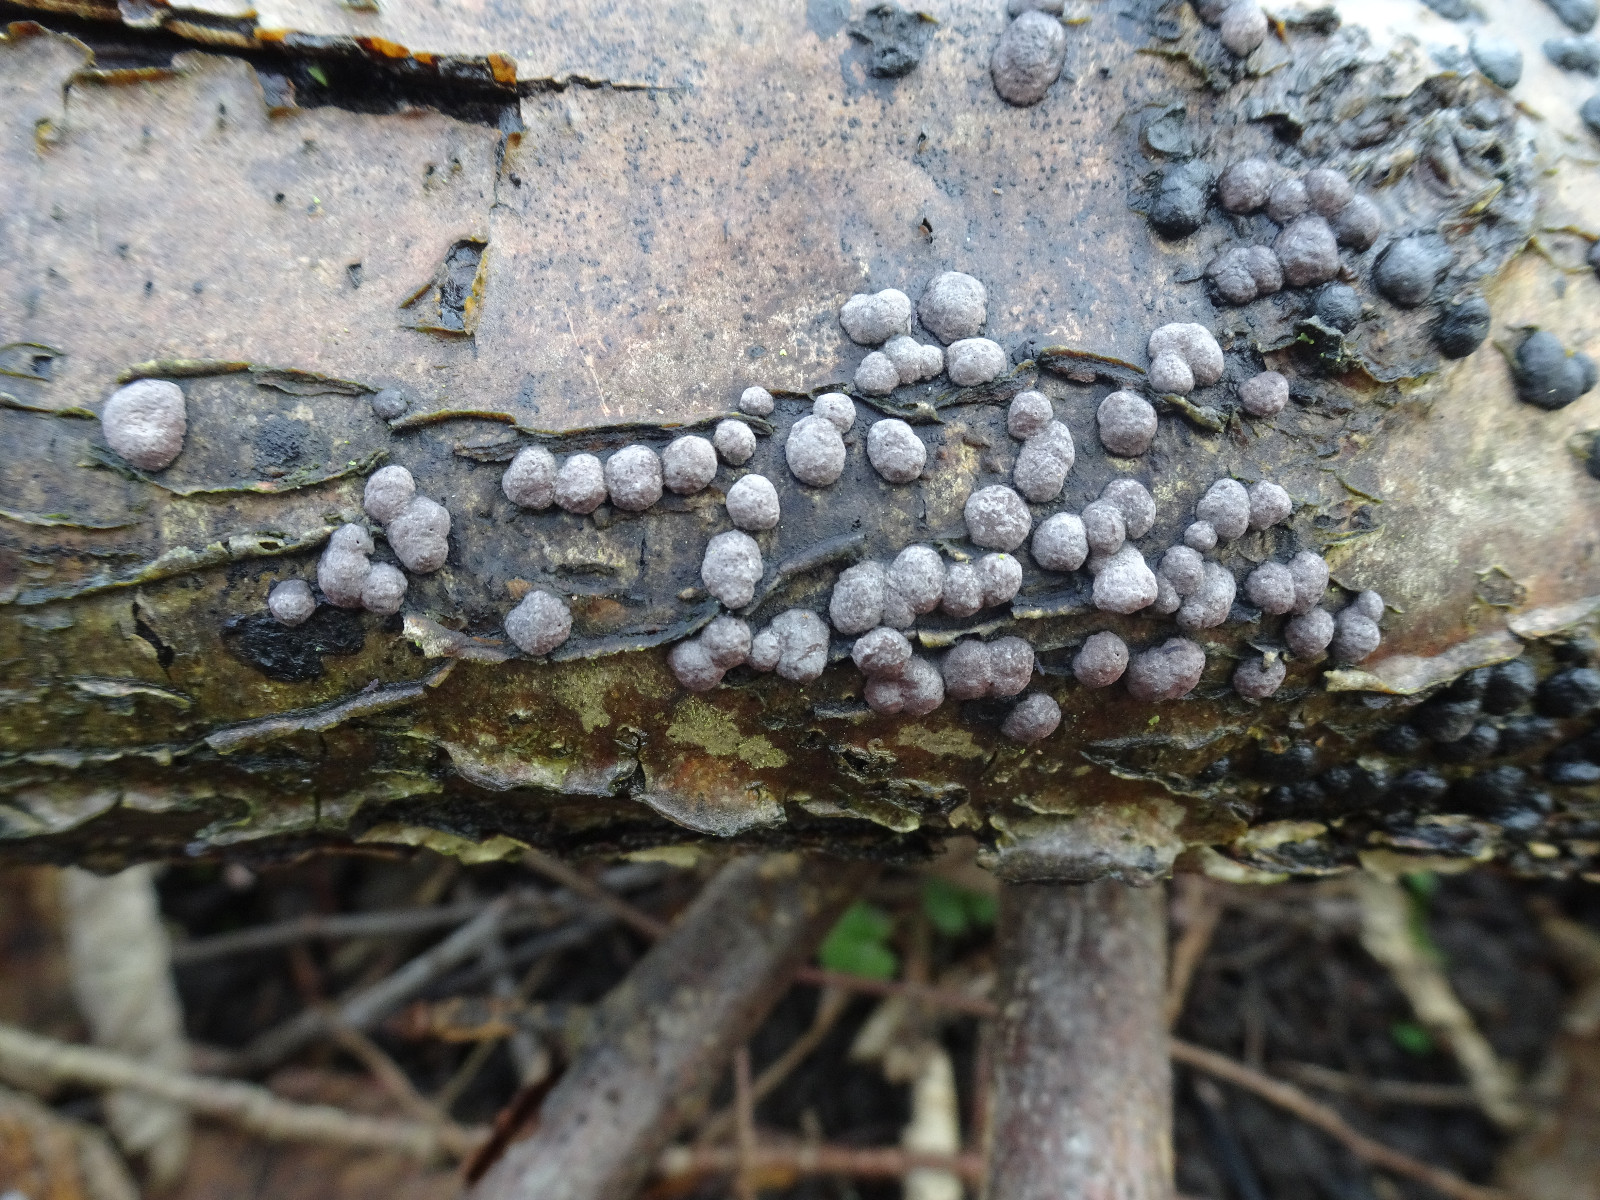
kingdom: Fungi
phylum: Ascomycota
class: Sordariomycetes
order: Xylariales
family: Hypoxylaceae
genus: Hypoxylon
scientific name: Hypoxylon fuscum
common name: kegleformet kulbær
